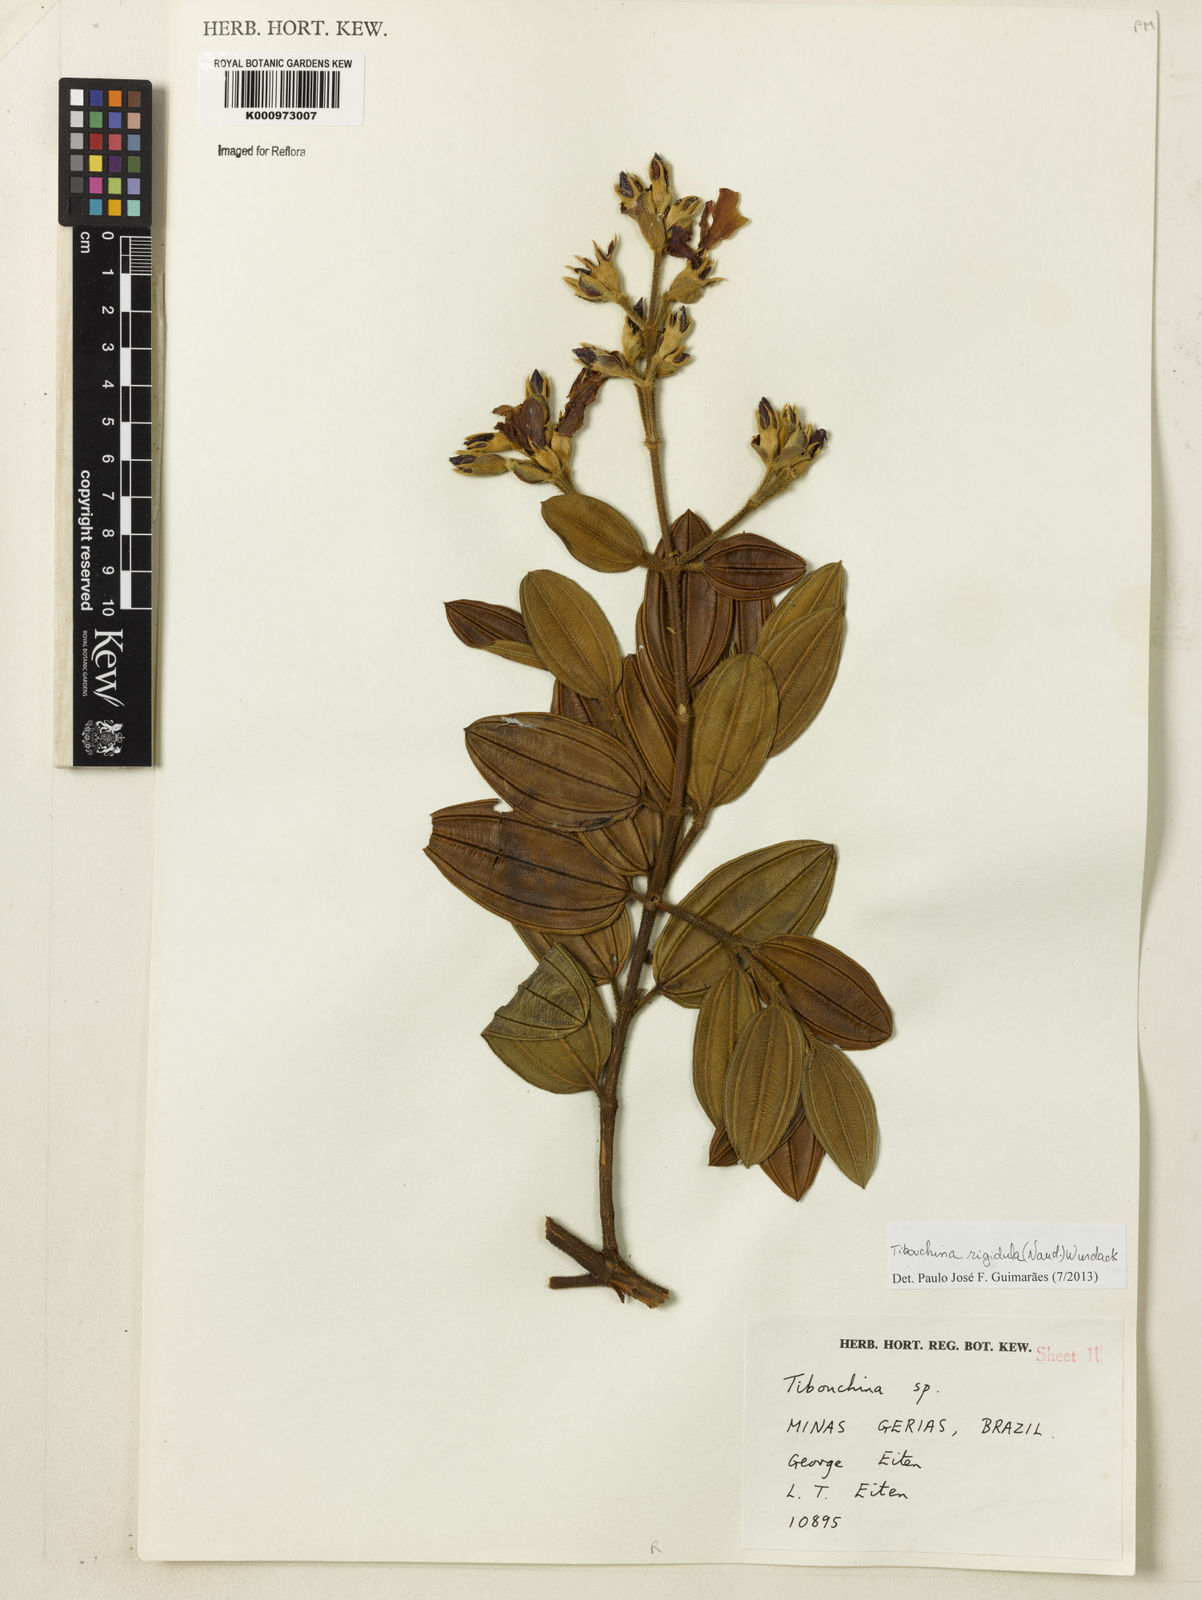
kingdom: Plantae
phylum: Tracheophyta
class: Magnoliopsida
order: Myrtales
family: Melastomataceae
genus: Pleroma
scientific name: Pleroma rigidulum
